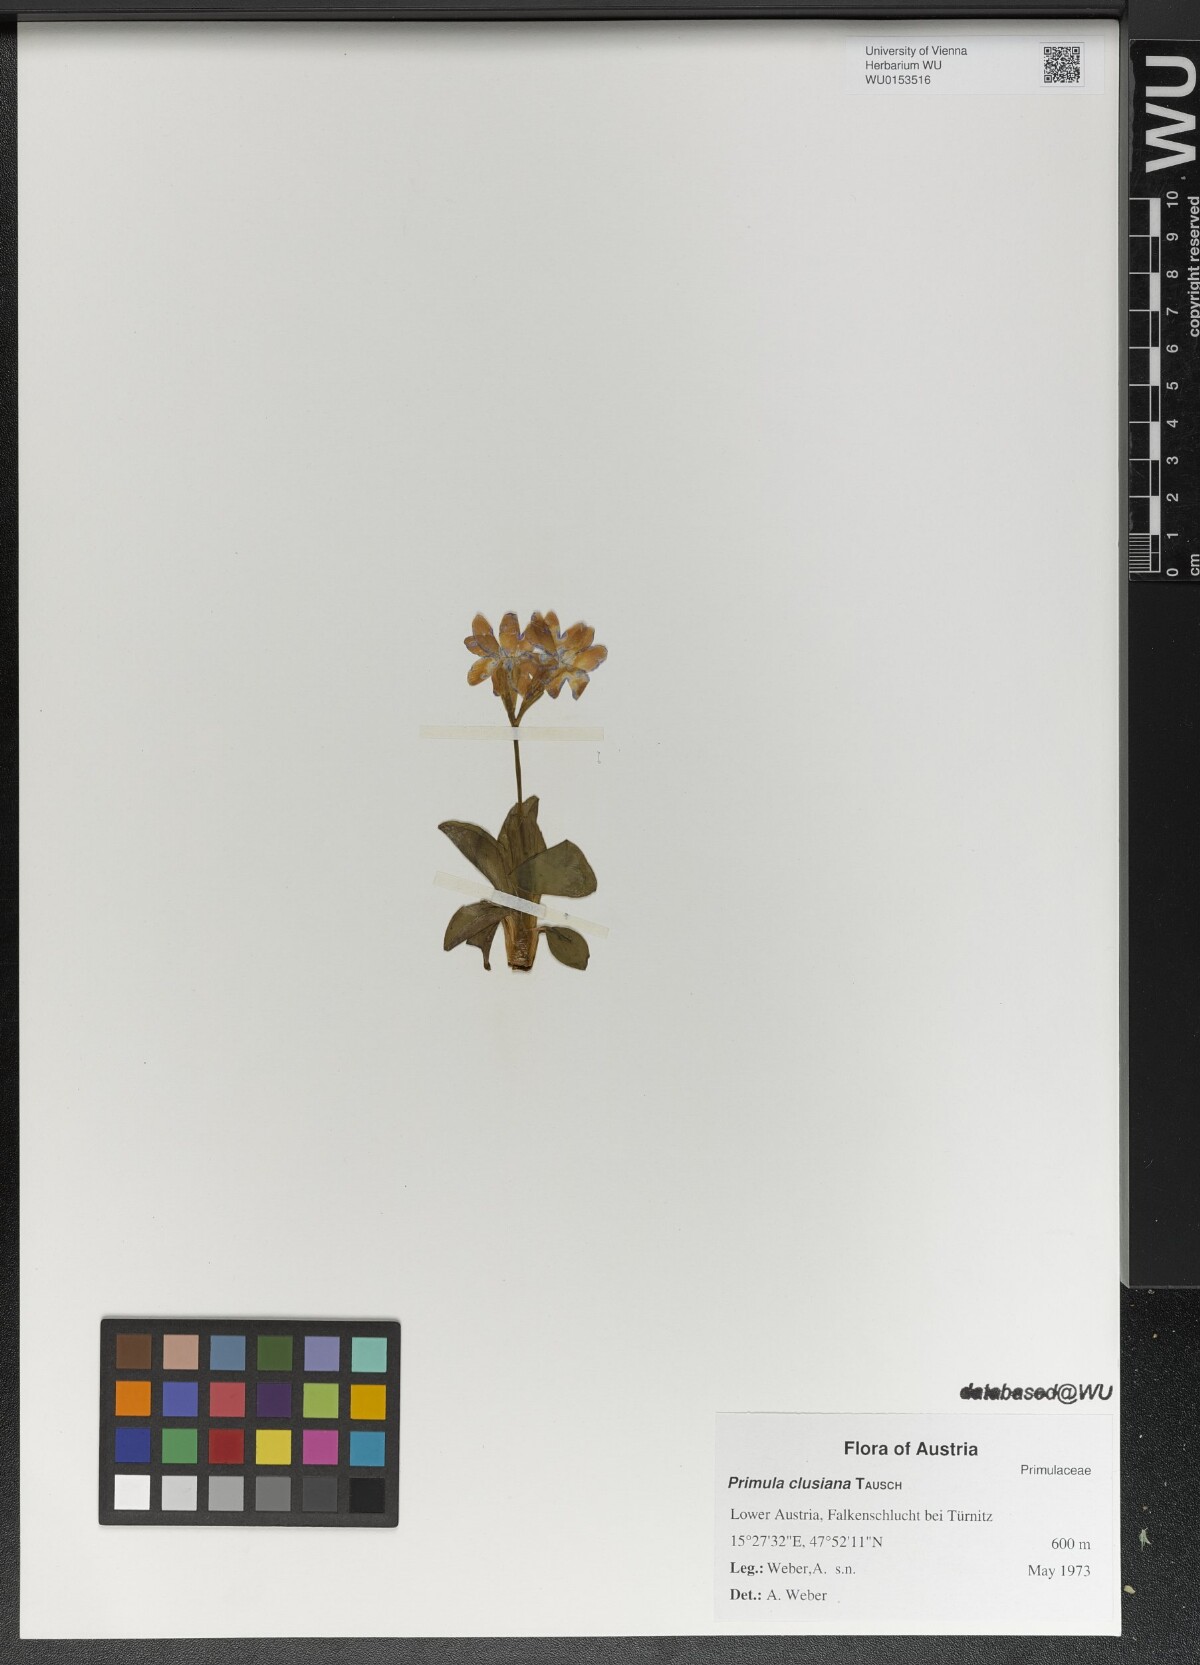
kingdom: Plantae
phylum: Tracheophyta
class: Magnoliopsida
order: Ericales
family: Primulaceae
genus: Primula
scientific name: Primula clusiana
